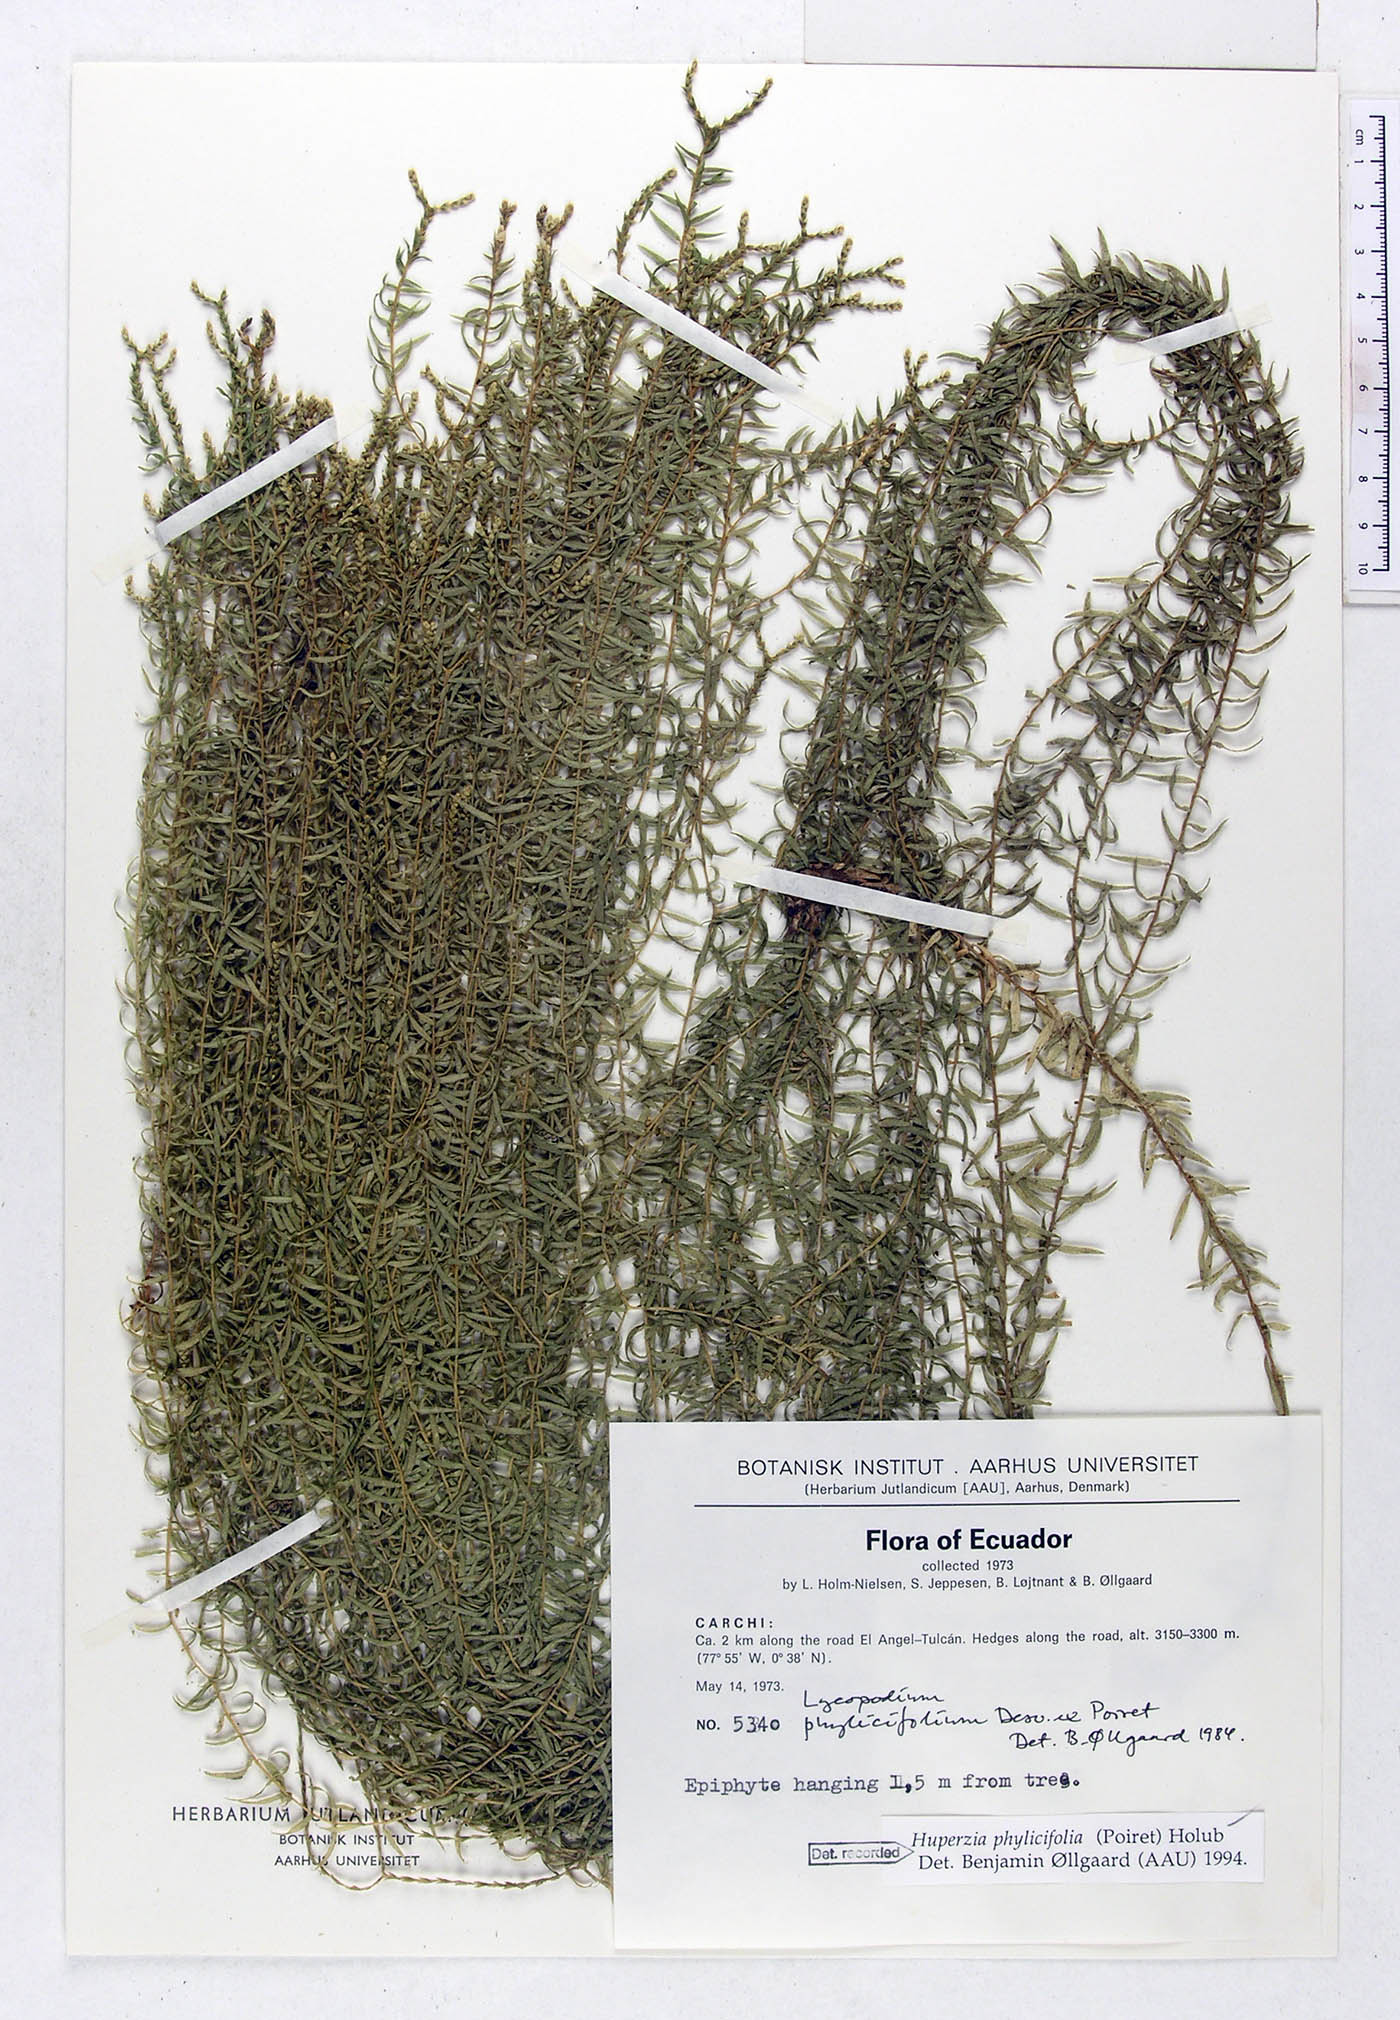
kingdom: Plantae
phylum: Tracheophyta
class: Lycopodiopsida
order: Lycopodiales
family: Lycopodiaceae
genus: Phlegmariurus
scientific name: Phlegmariurus phylicifolius
